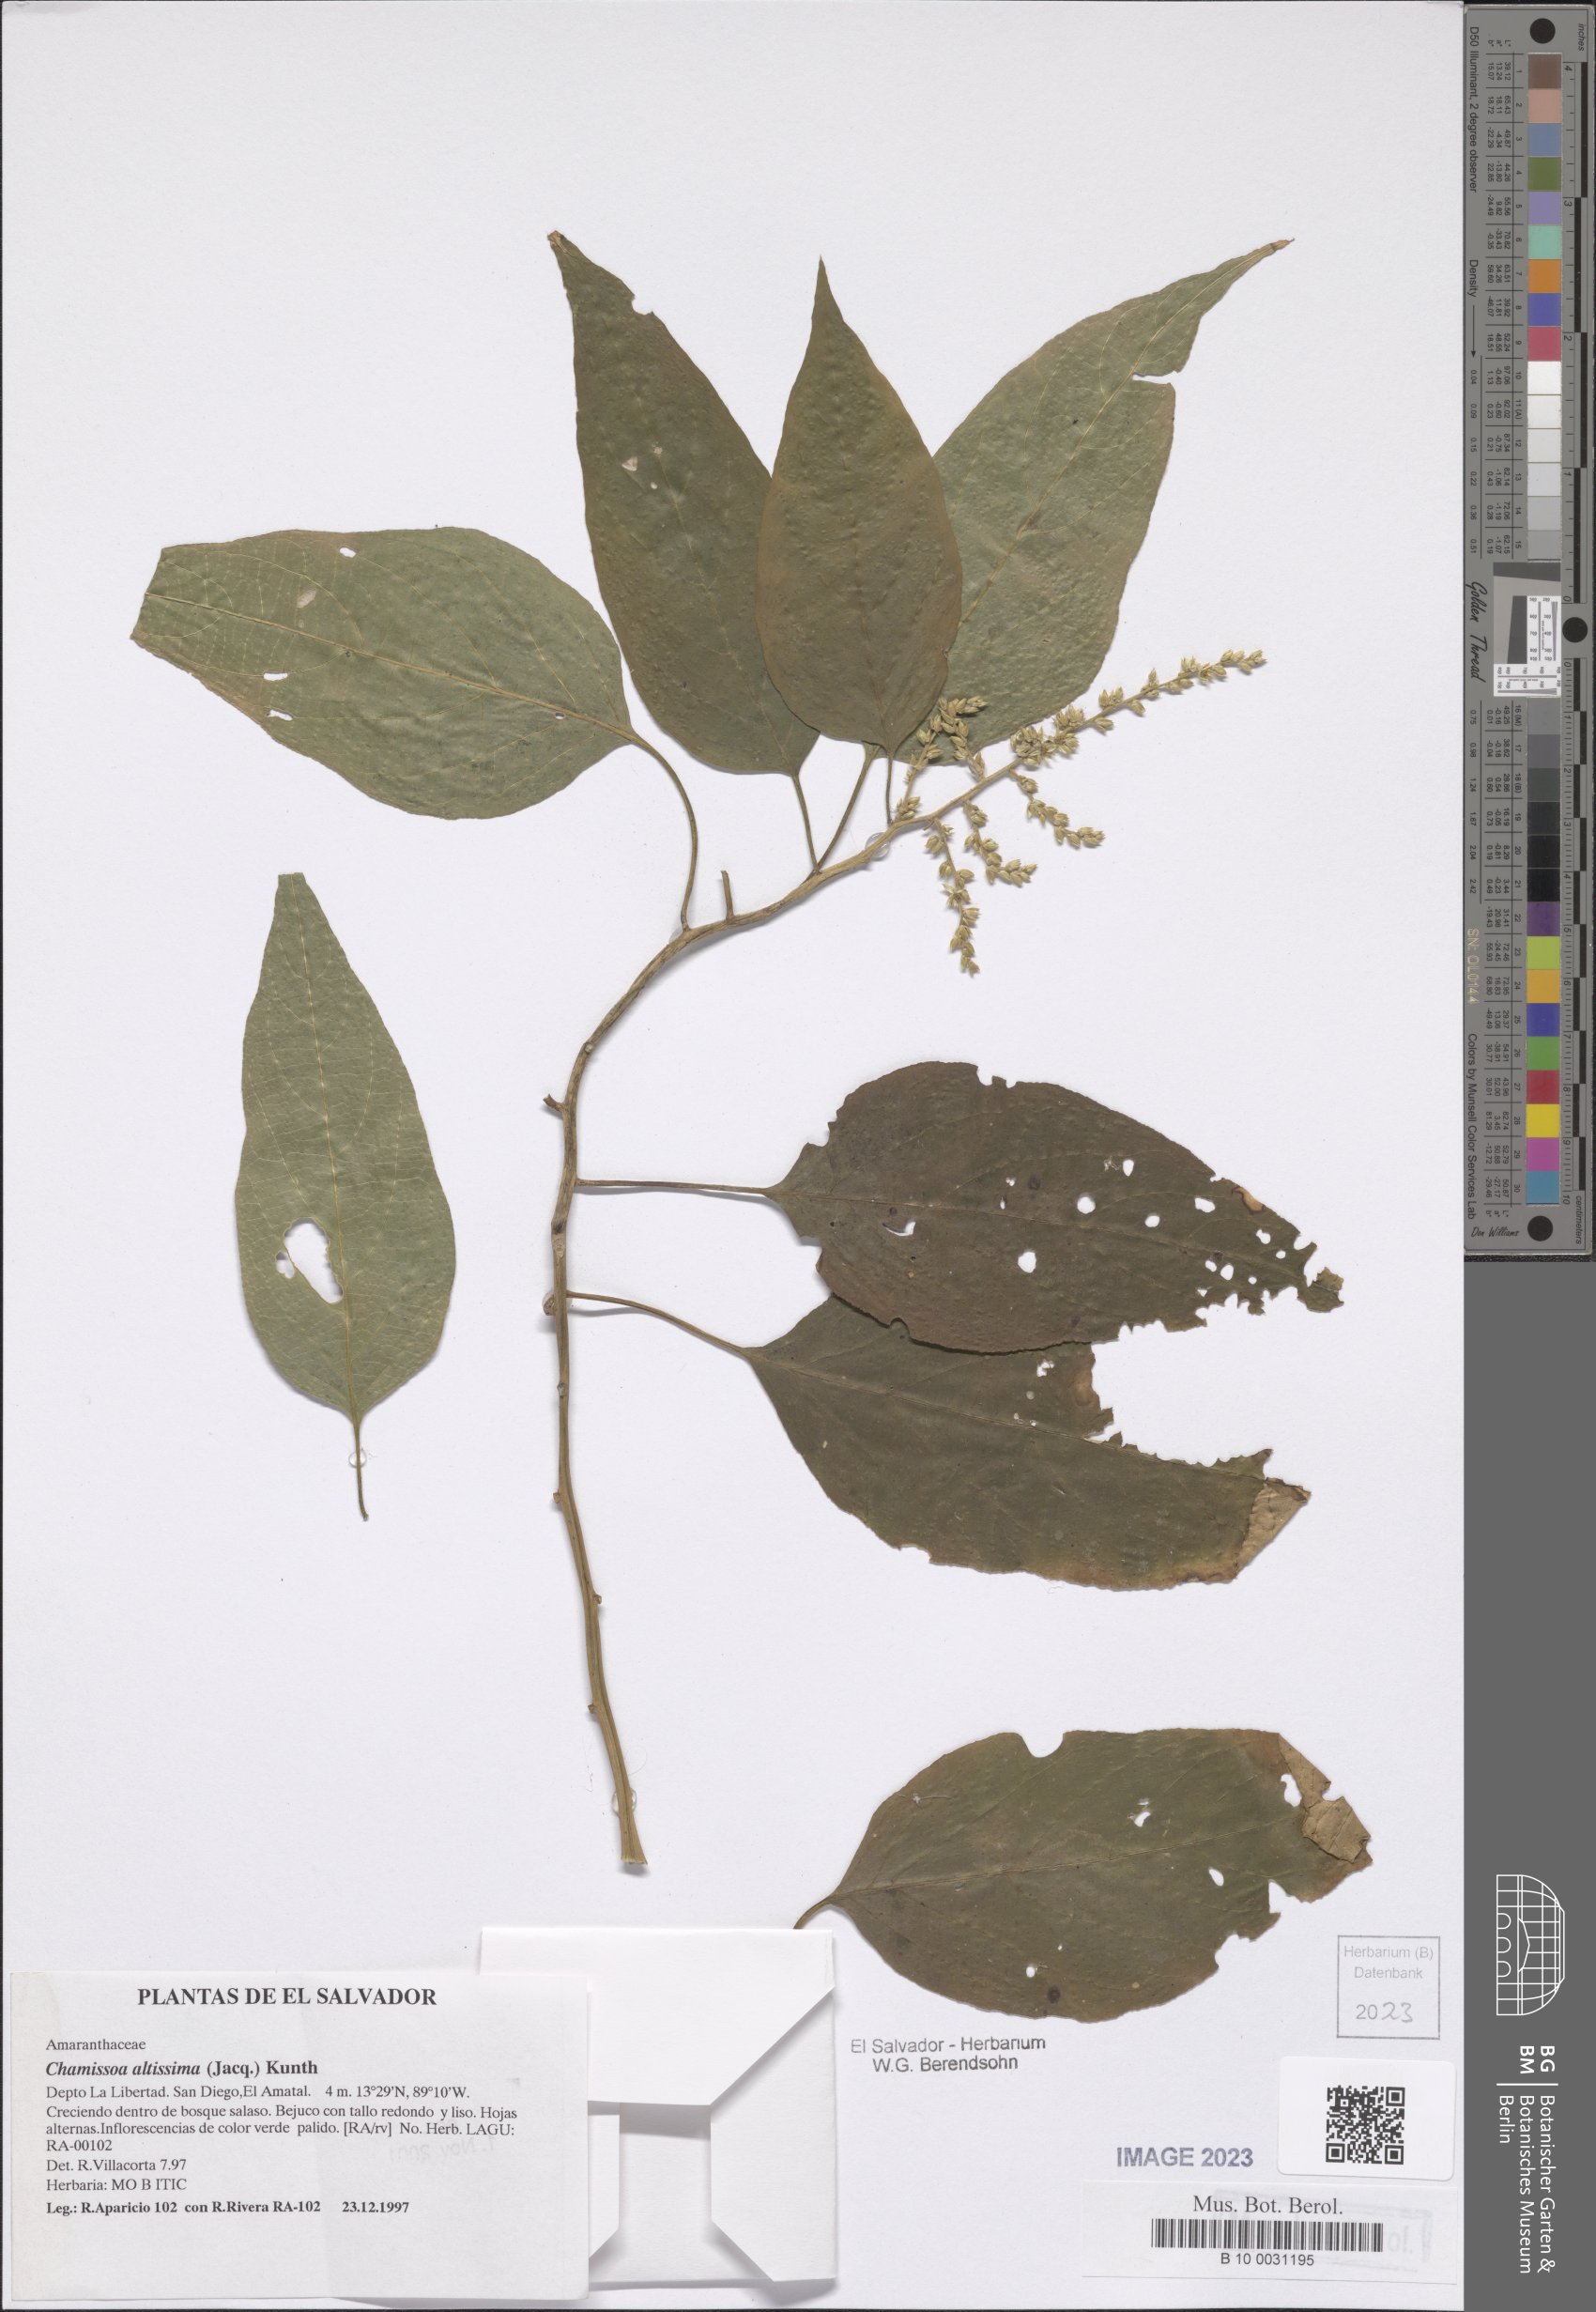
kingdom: Plantae
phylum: Tracheophyta
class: Magnoliopsida
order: Caryophyllales
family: Amaranthaceae
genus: Chamissoa
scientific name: Chamissoa altissima
